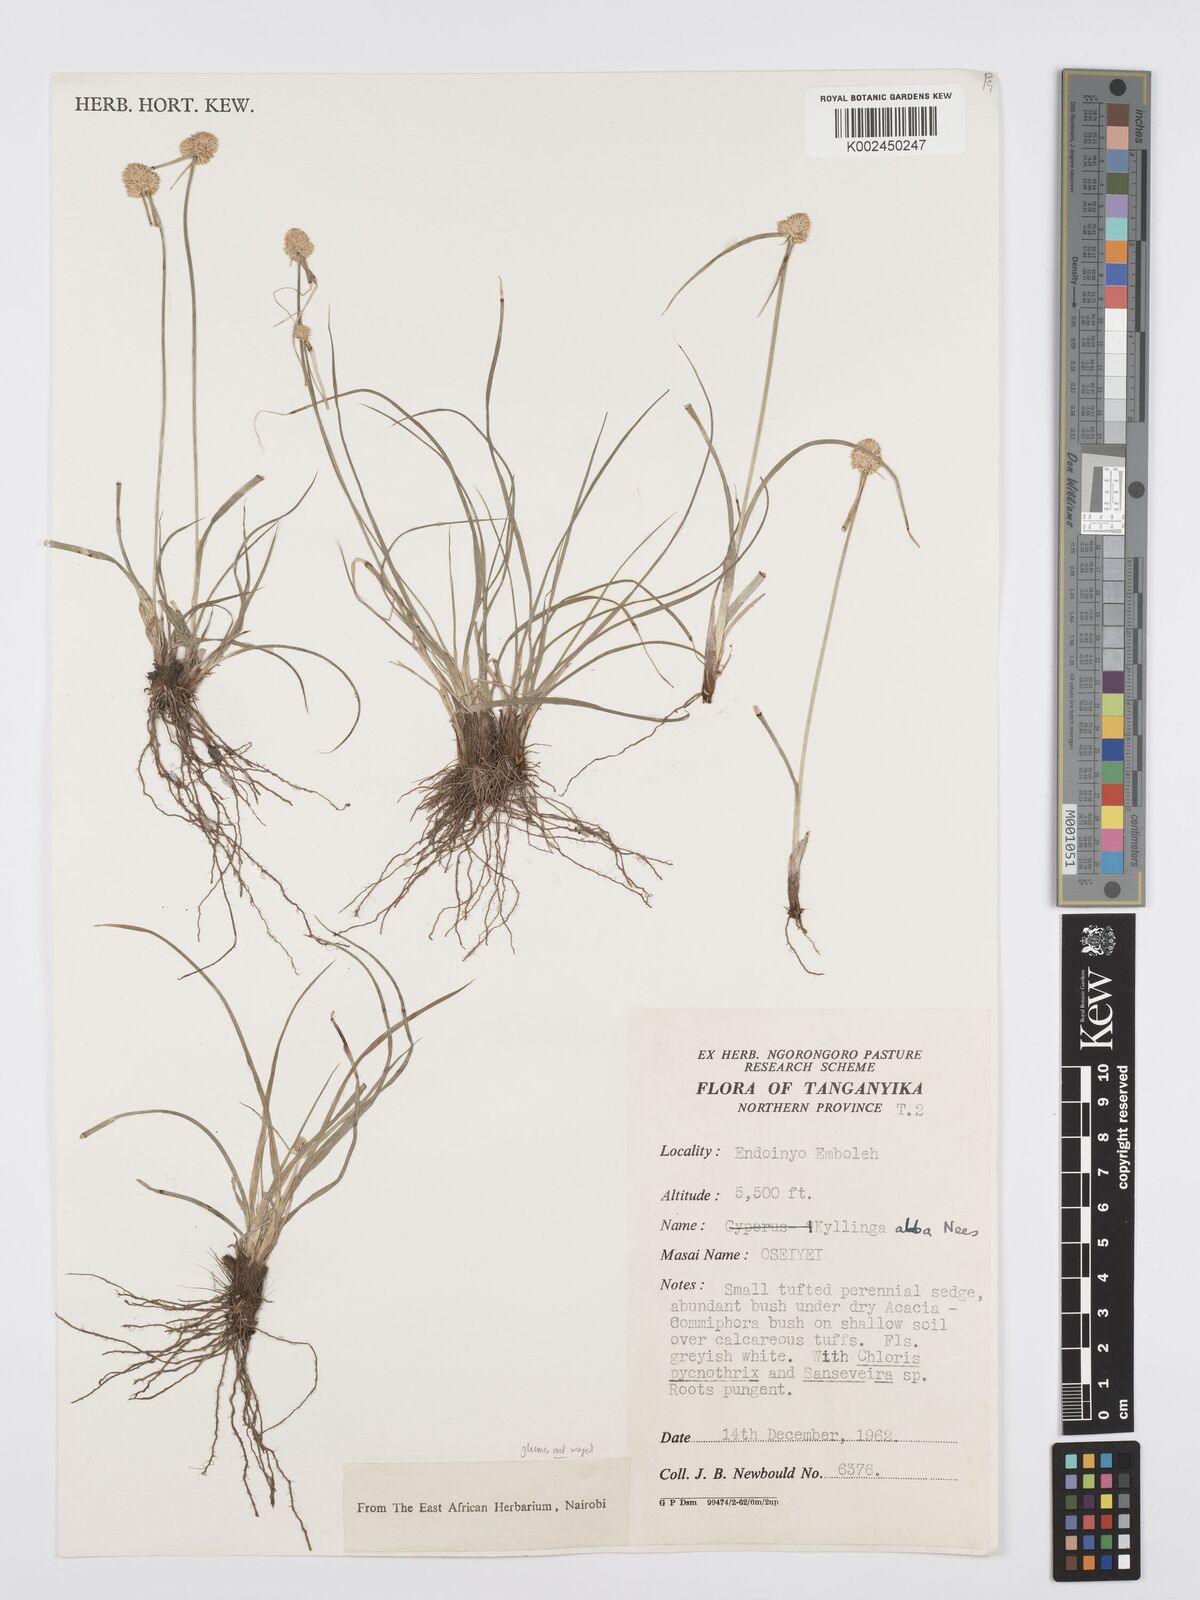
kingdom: Plantae
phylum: Tracheophyta
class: Liliopsida
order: Poales
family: Cyperaceae
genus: Cyperus
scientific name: Cyperus
